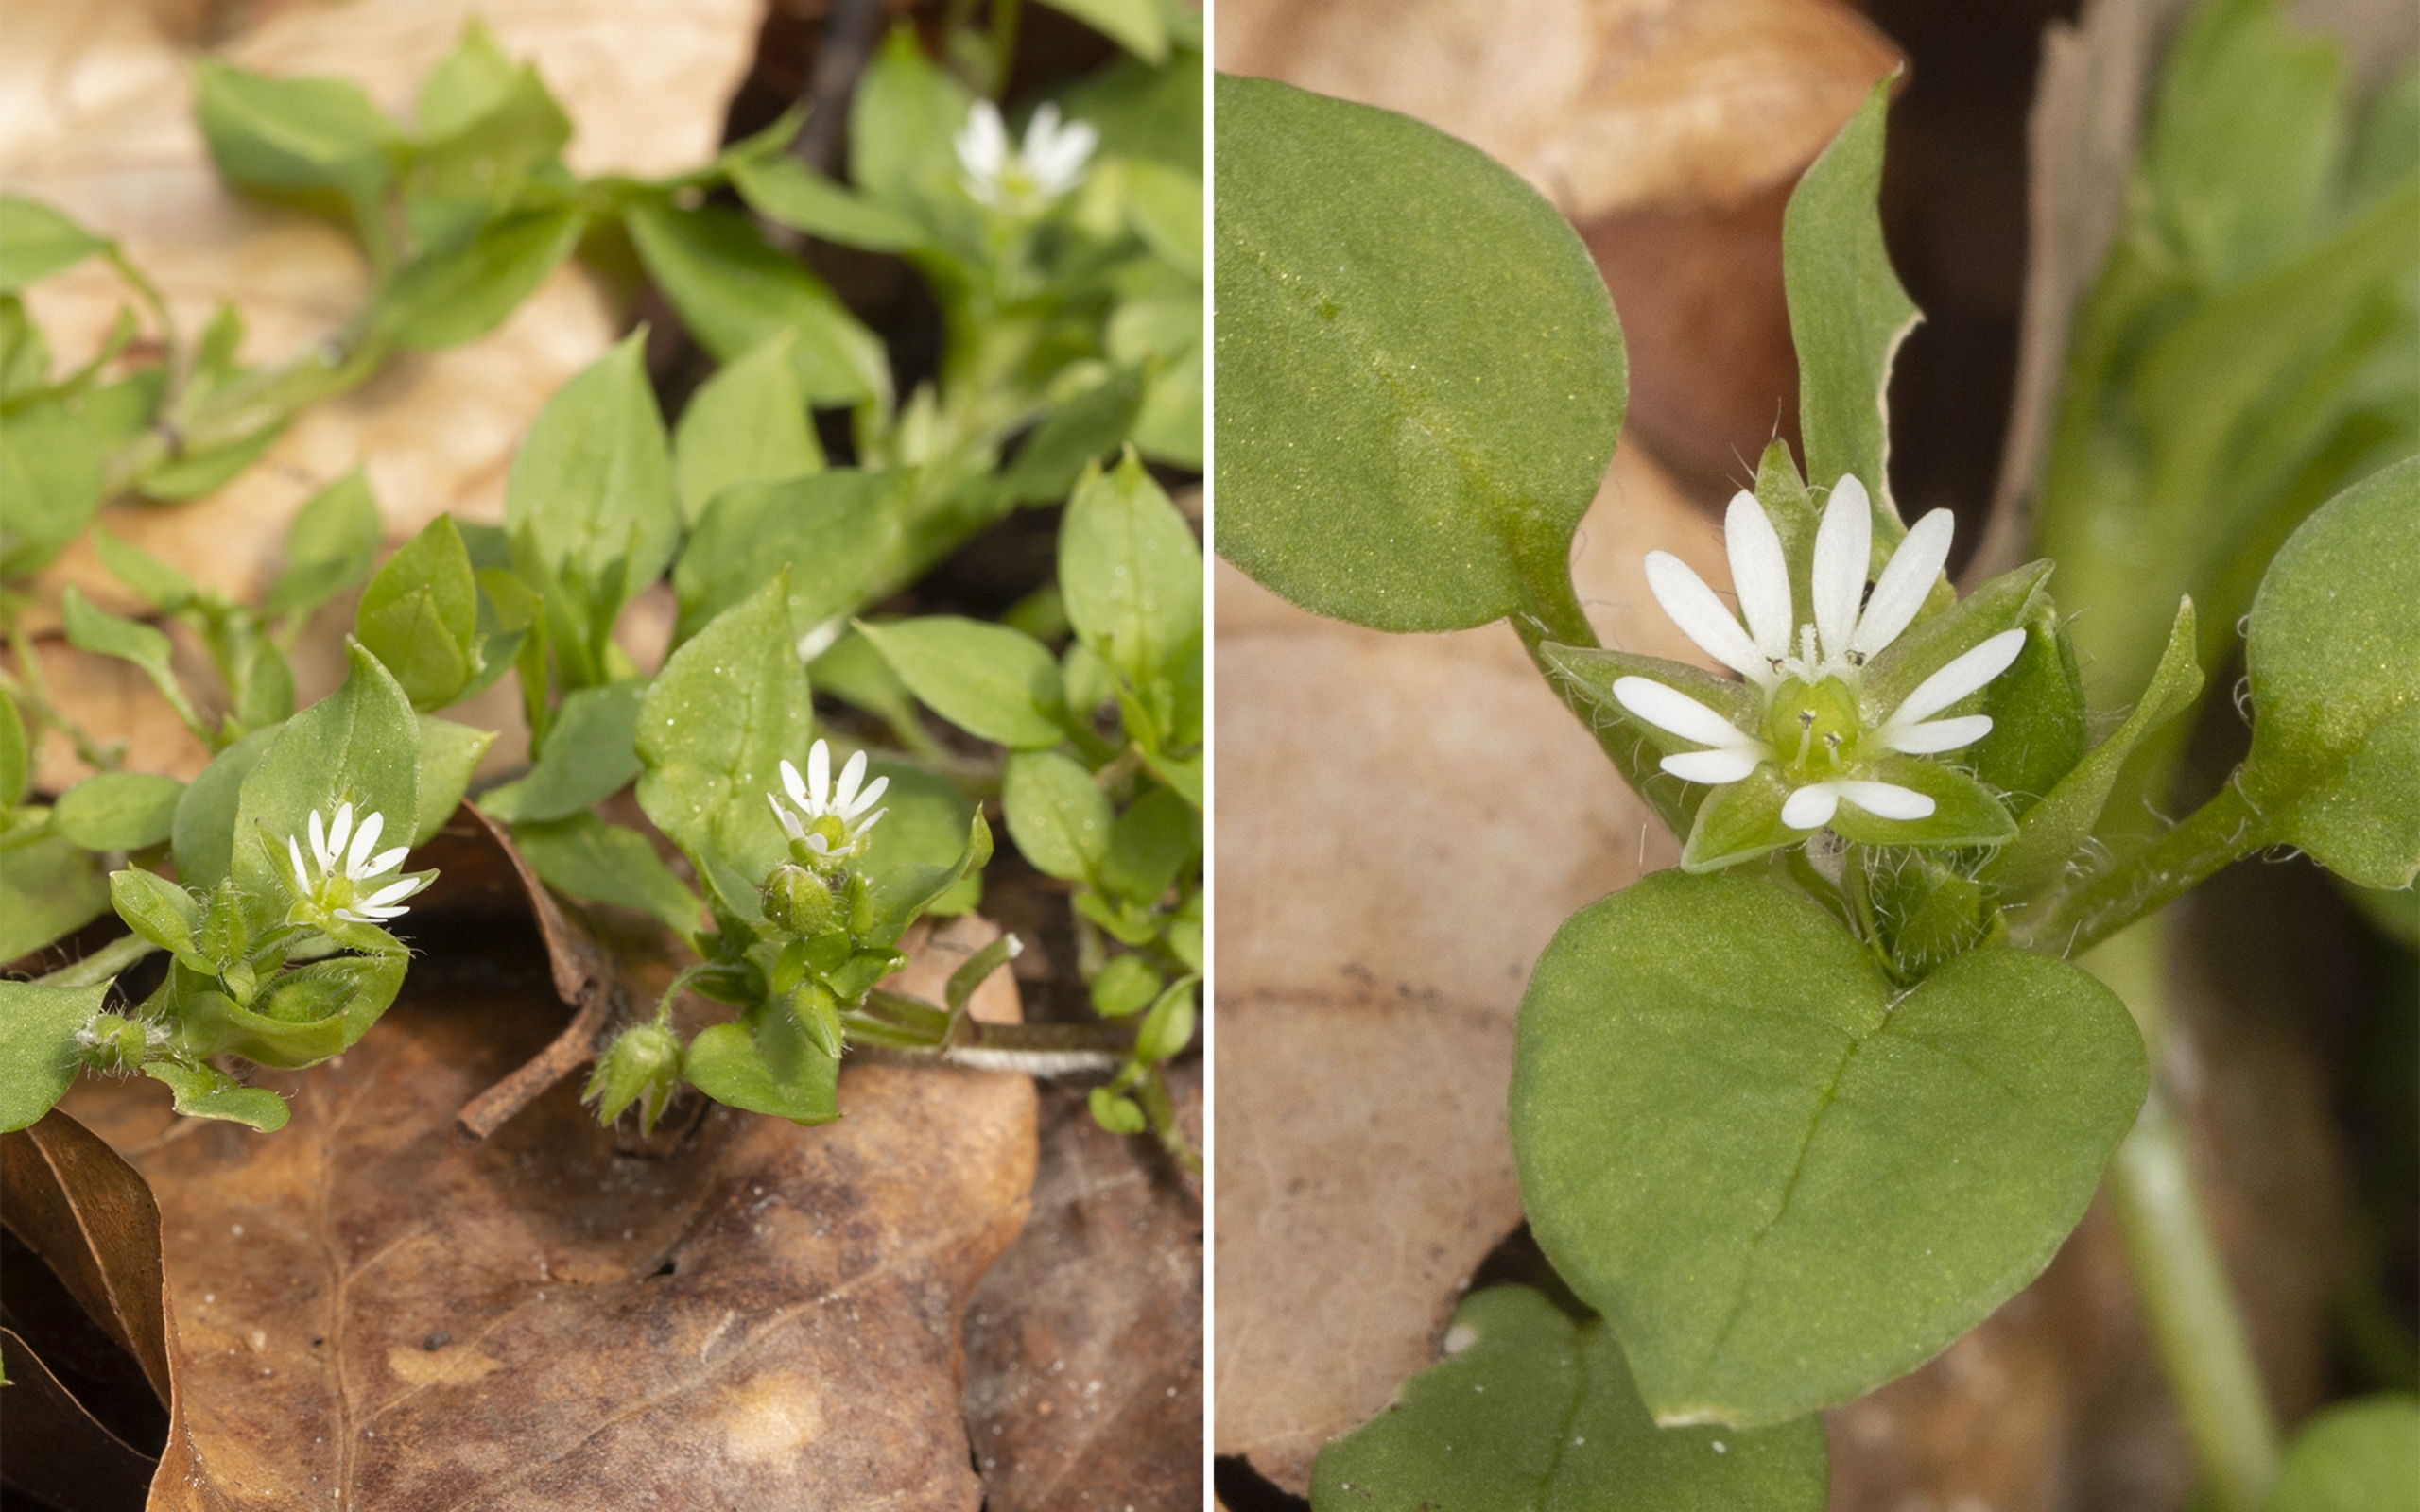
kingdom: Plantae
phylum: Tracheophyta
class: Magnoliopsida
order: Caryophyllales
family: Caryophyllaceae
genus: Stellaria
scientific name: Stellaria media
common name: Almindelig fuglegræs
